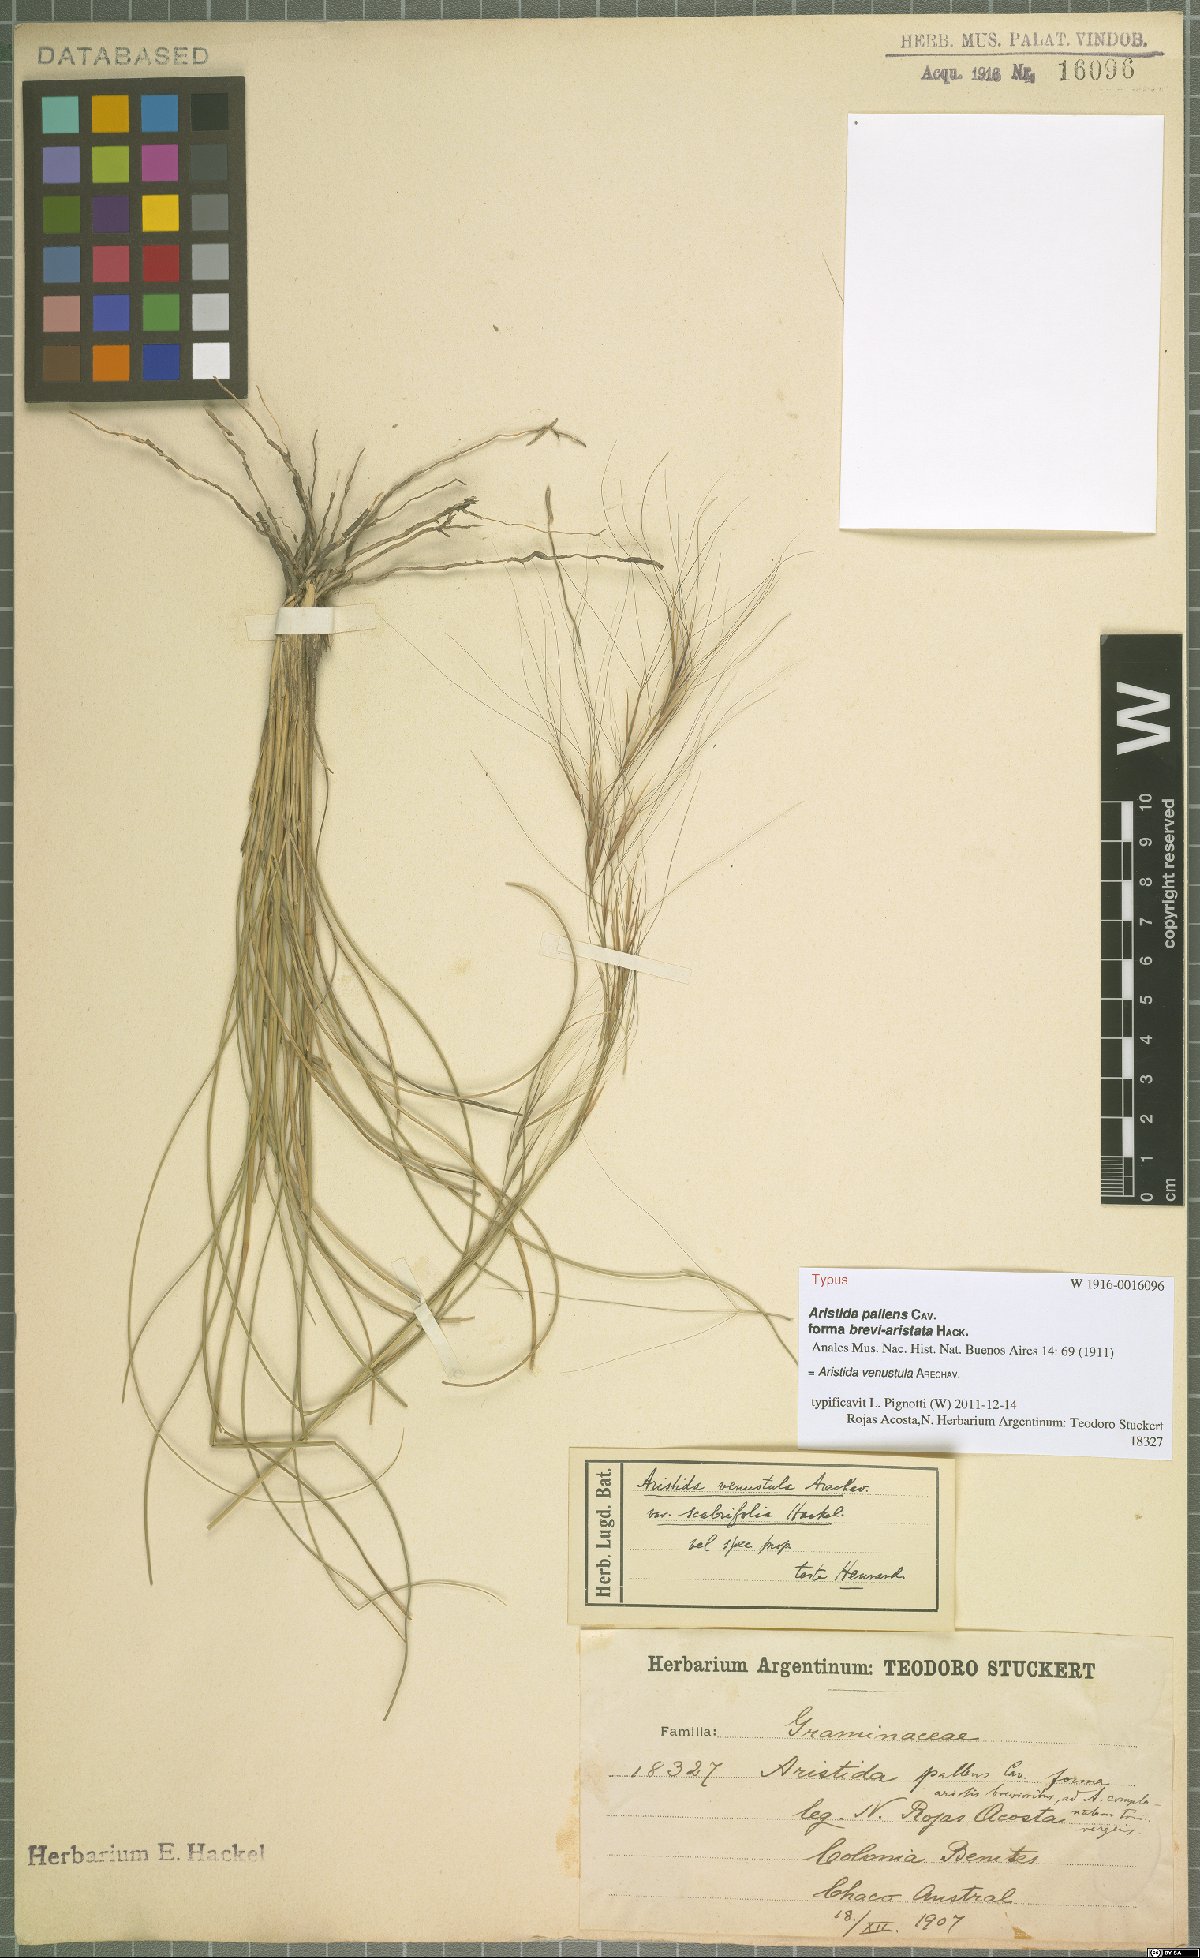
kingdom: Plantae
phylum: Tracheophyta
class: Liliopsida
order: Poales
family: Poaceae
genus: Aristida
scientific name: Aristida venustula
